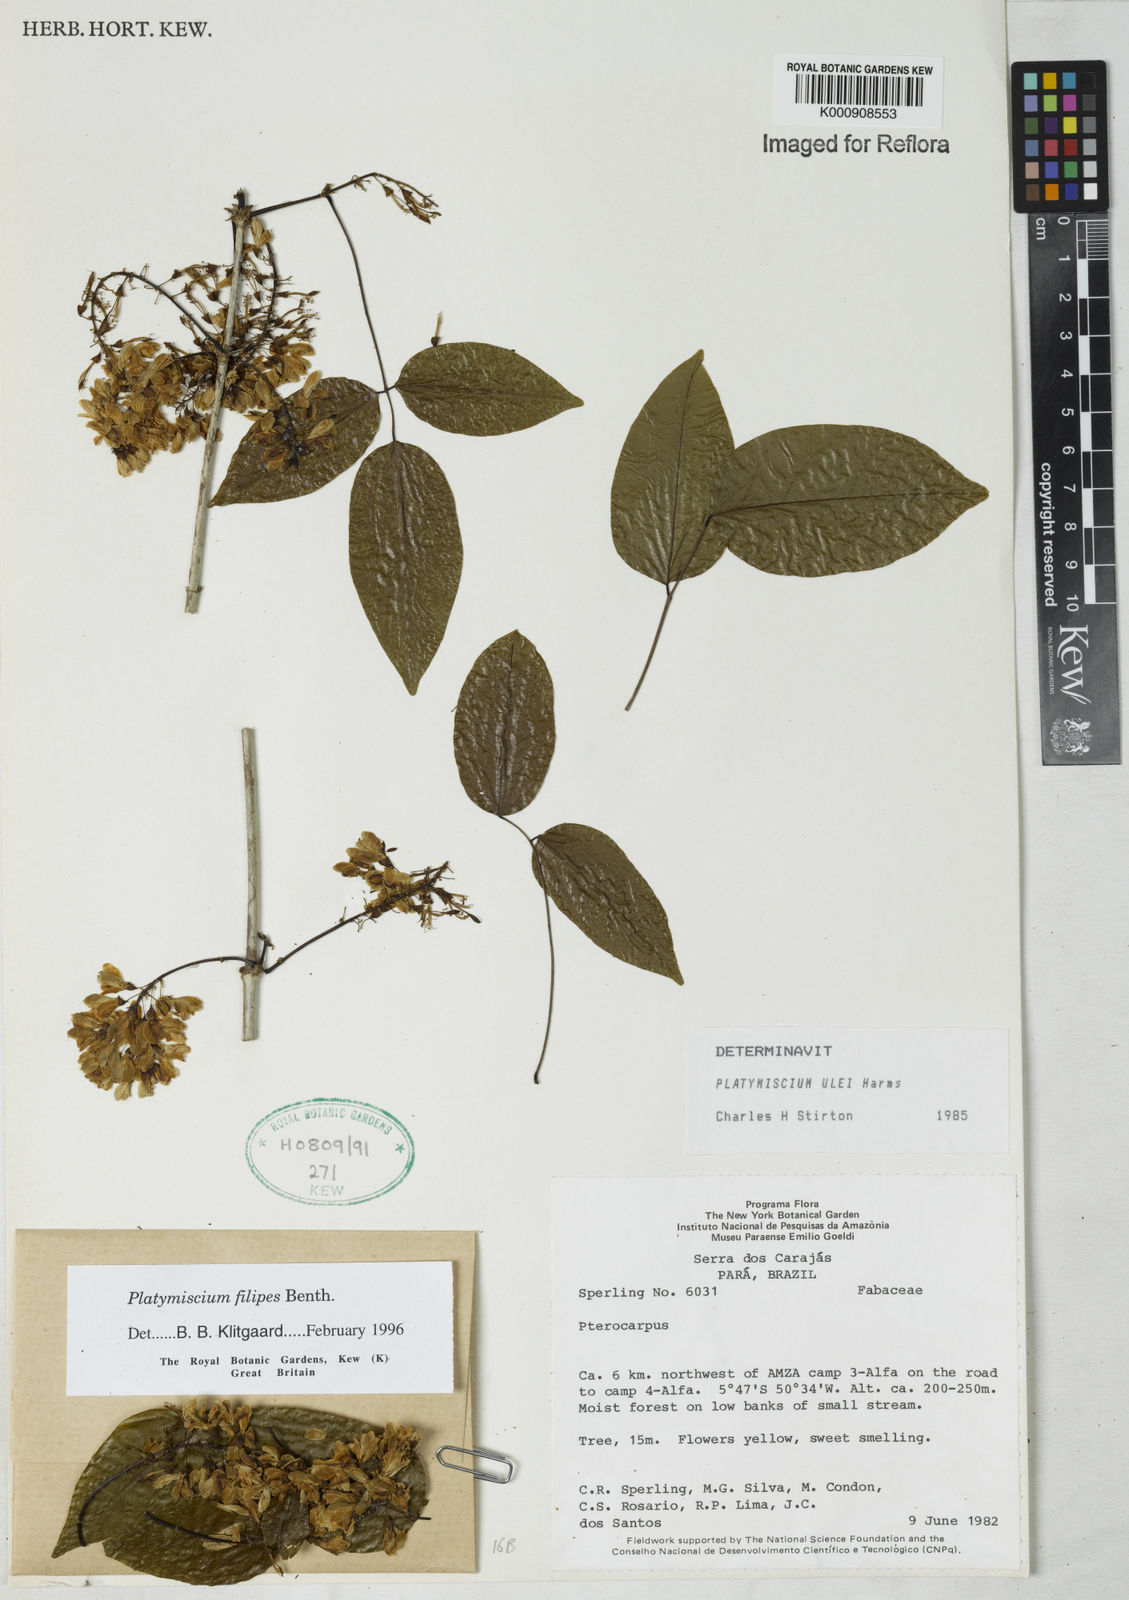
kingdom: Plantae
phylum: Tracheophyta
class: Magnoliopsida
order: Fabales
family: Fabaceae
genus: Platymiscium
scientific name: Platymiscium filipes
